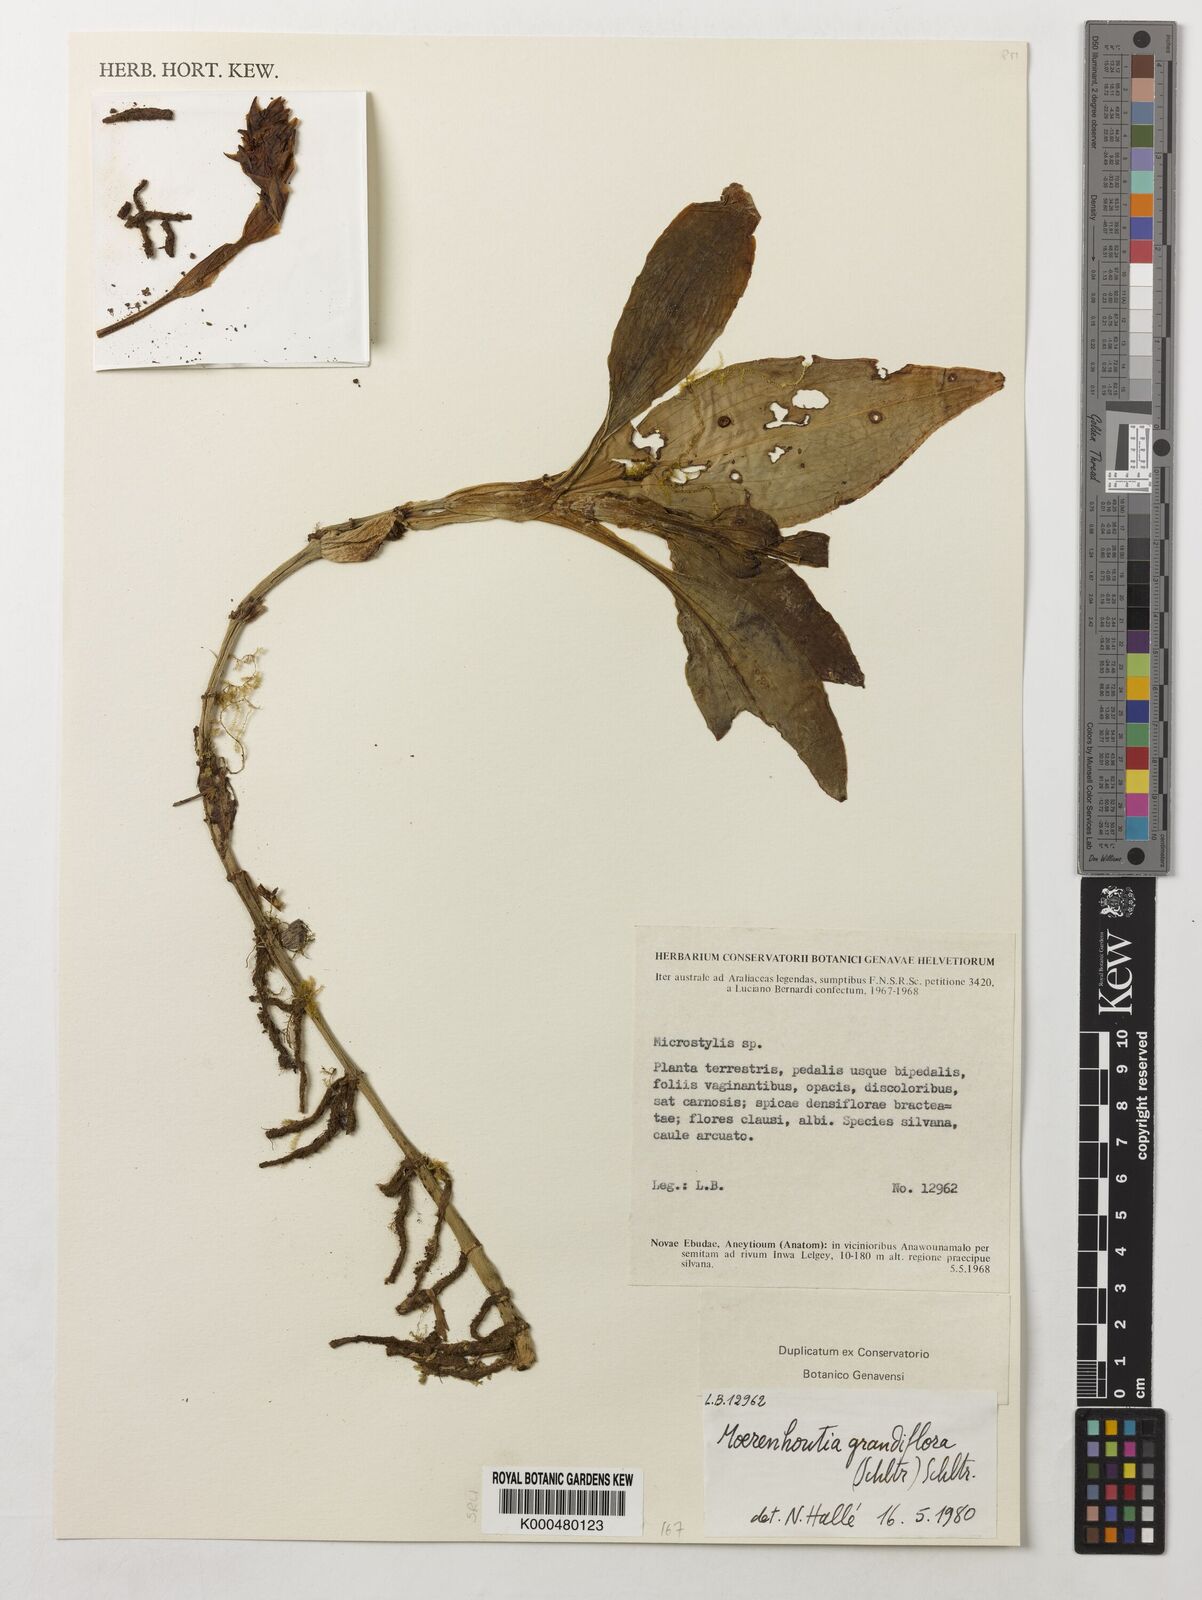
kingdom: Plantae
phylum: Tracheophyta
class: Liliopsida
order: Asparagales
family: Orchidaceae
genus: Platylepis
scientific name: Platylepis grandiflora
